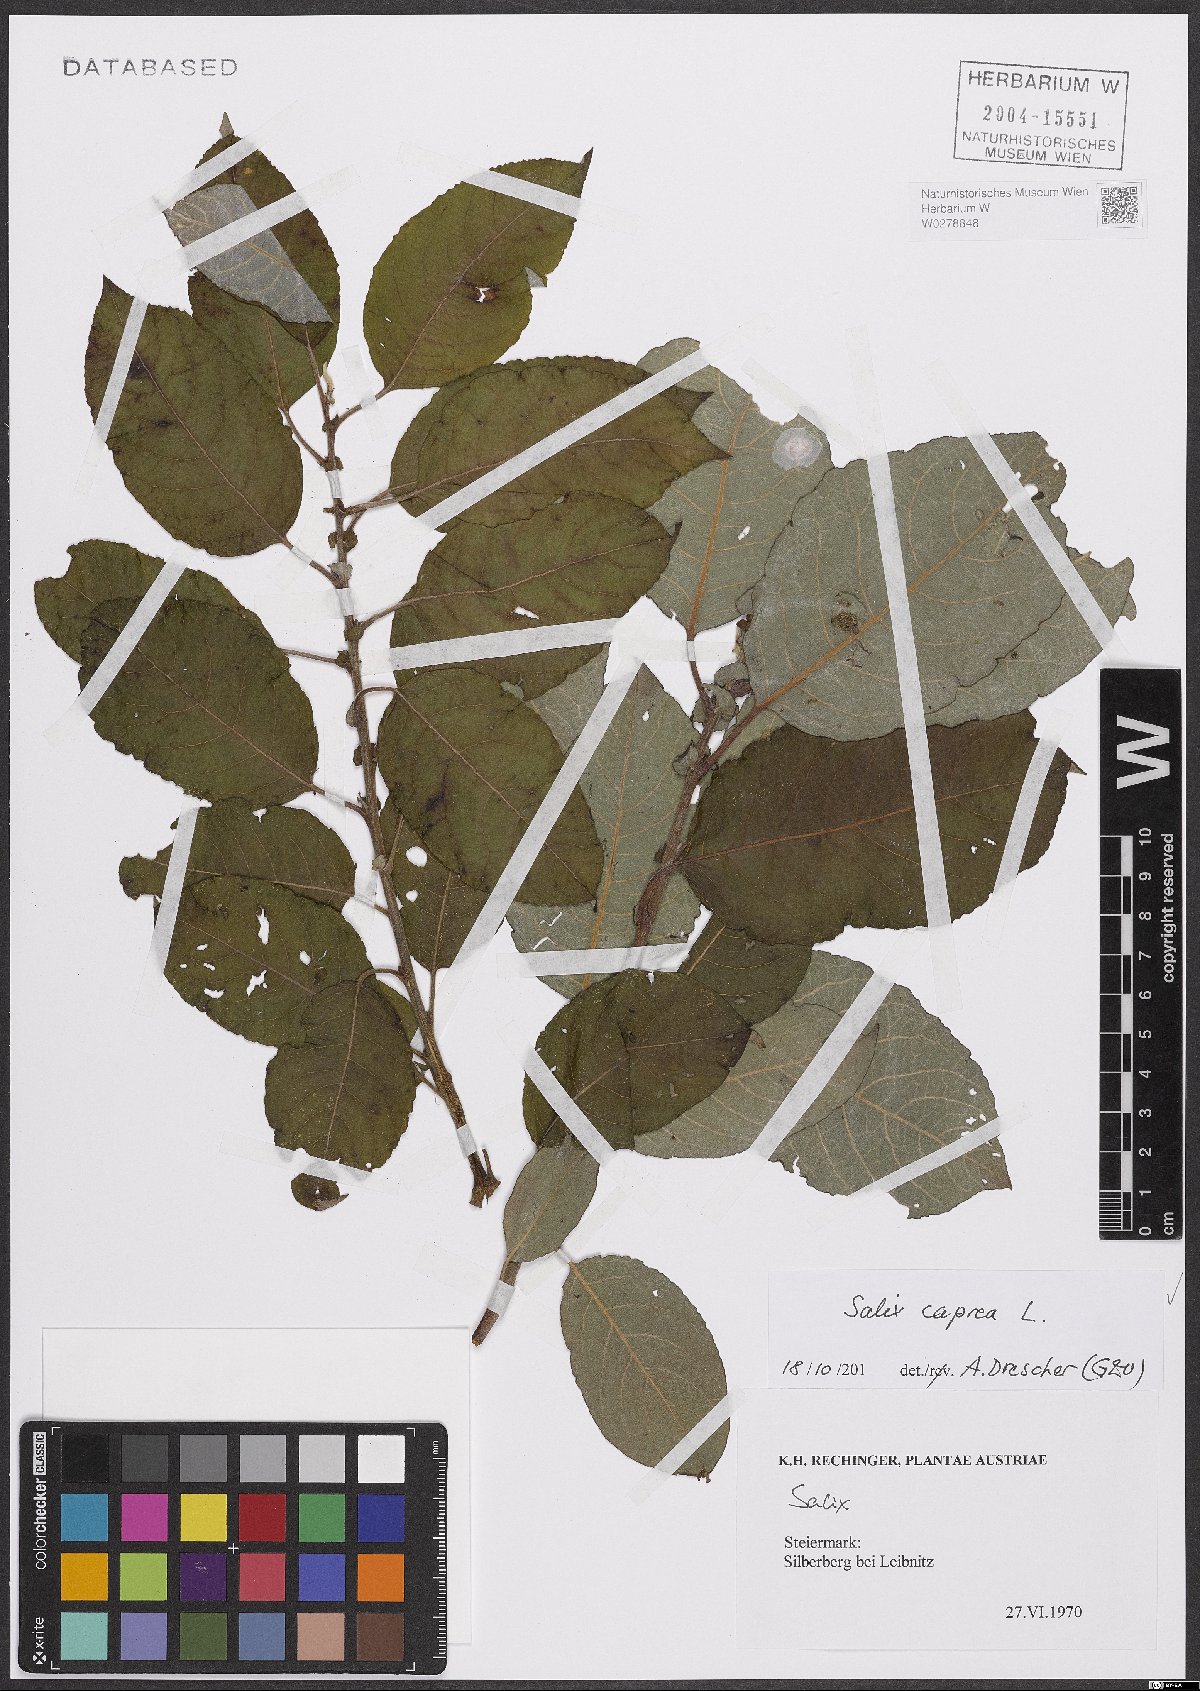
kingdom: Plantae
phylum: Tracheophyta
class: Magnoliopsida
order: Malpighiales
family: Salicaceae
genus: Salix
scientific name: Salix caprea
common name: Goat willow
